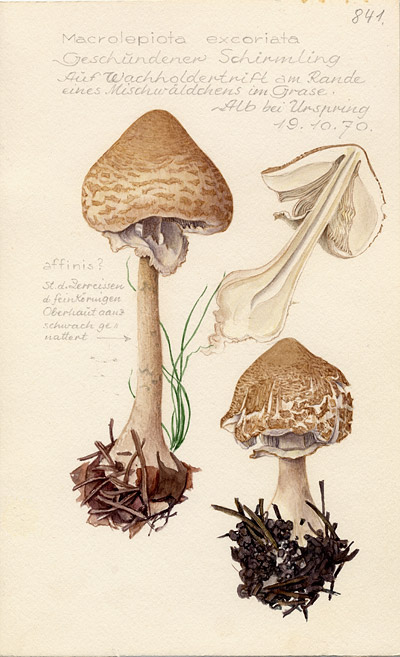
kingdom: Fungi
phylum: Basidiomycota
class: Agaricomycetes
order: Agaricales
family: Agaricaceae
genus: Macrolepiota
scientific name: Macrolepiota excoriata
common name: Frayed parasol
